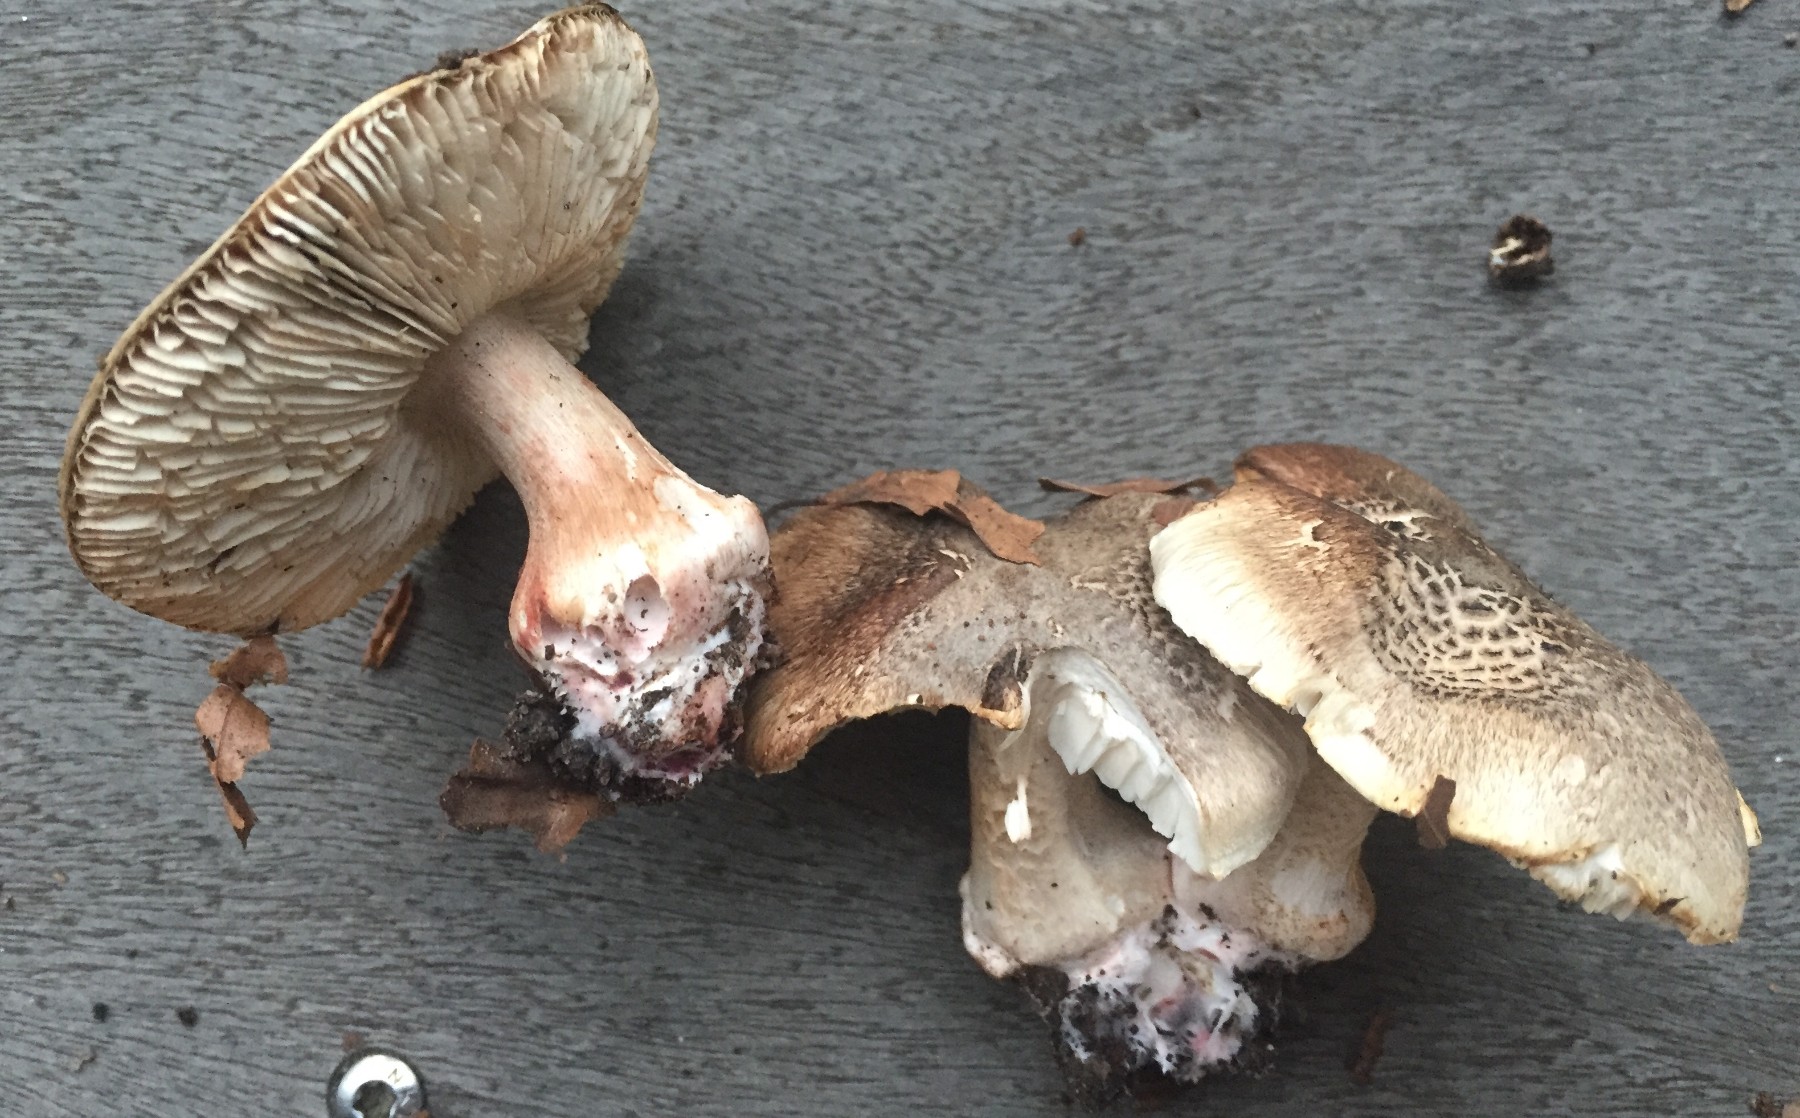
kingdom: Fungi
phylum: Basidiomycota
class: Agaricomycetes
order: Agaricales
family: Tricholomataceae
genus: Tricholoma
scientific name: Tricholoma basirubens
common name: rødfodet ridderhat
